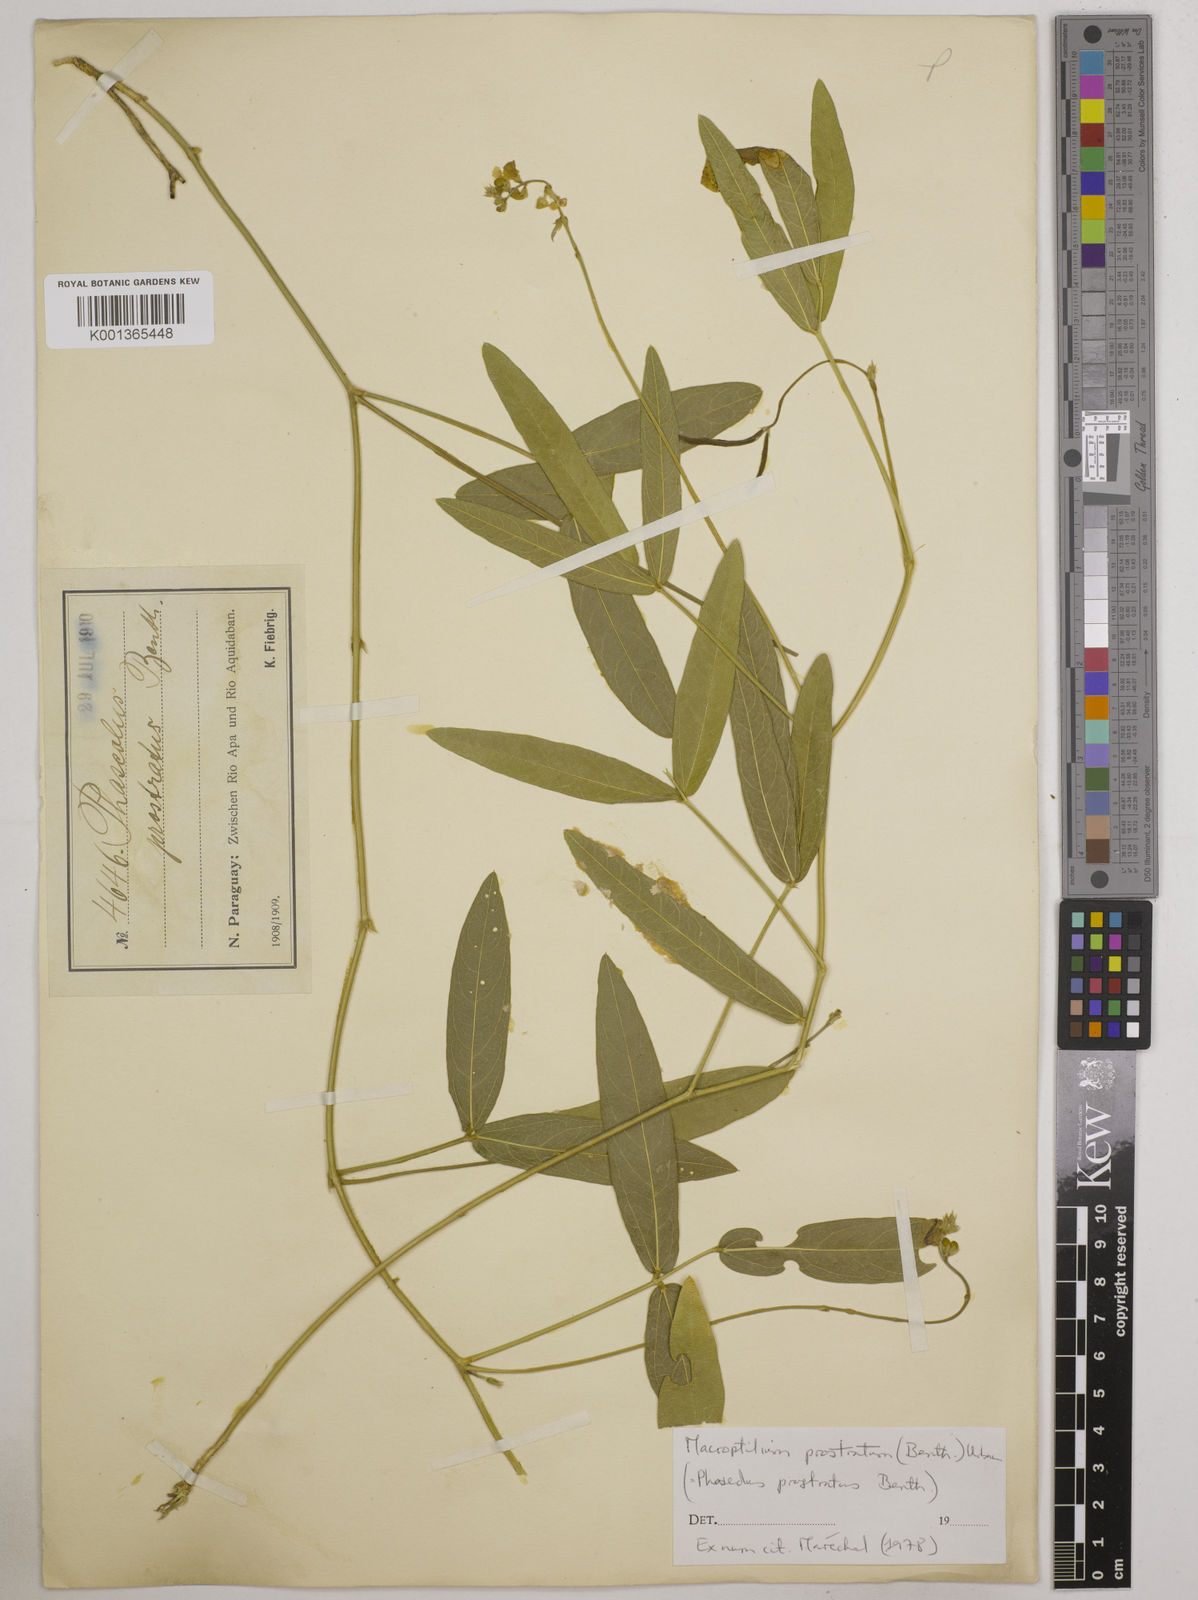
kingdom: Plantae
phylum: Tracheophyta
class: Magnoliopsida
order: Fabales
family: Fabaceae
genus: Macroptilium
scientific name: Macroptilium prostratum
